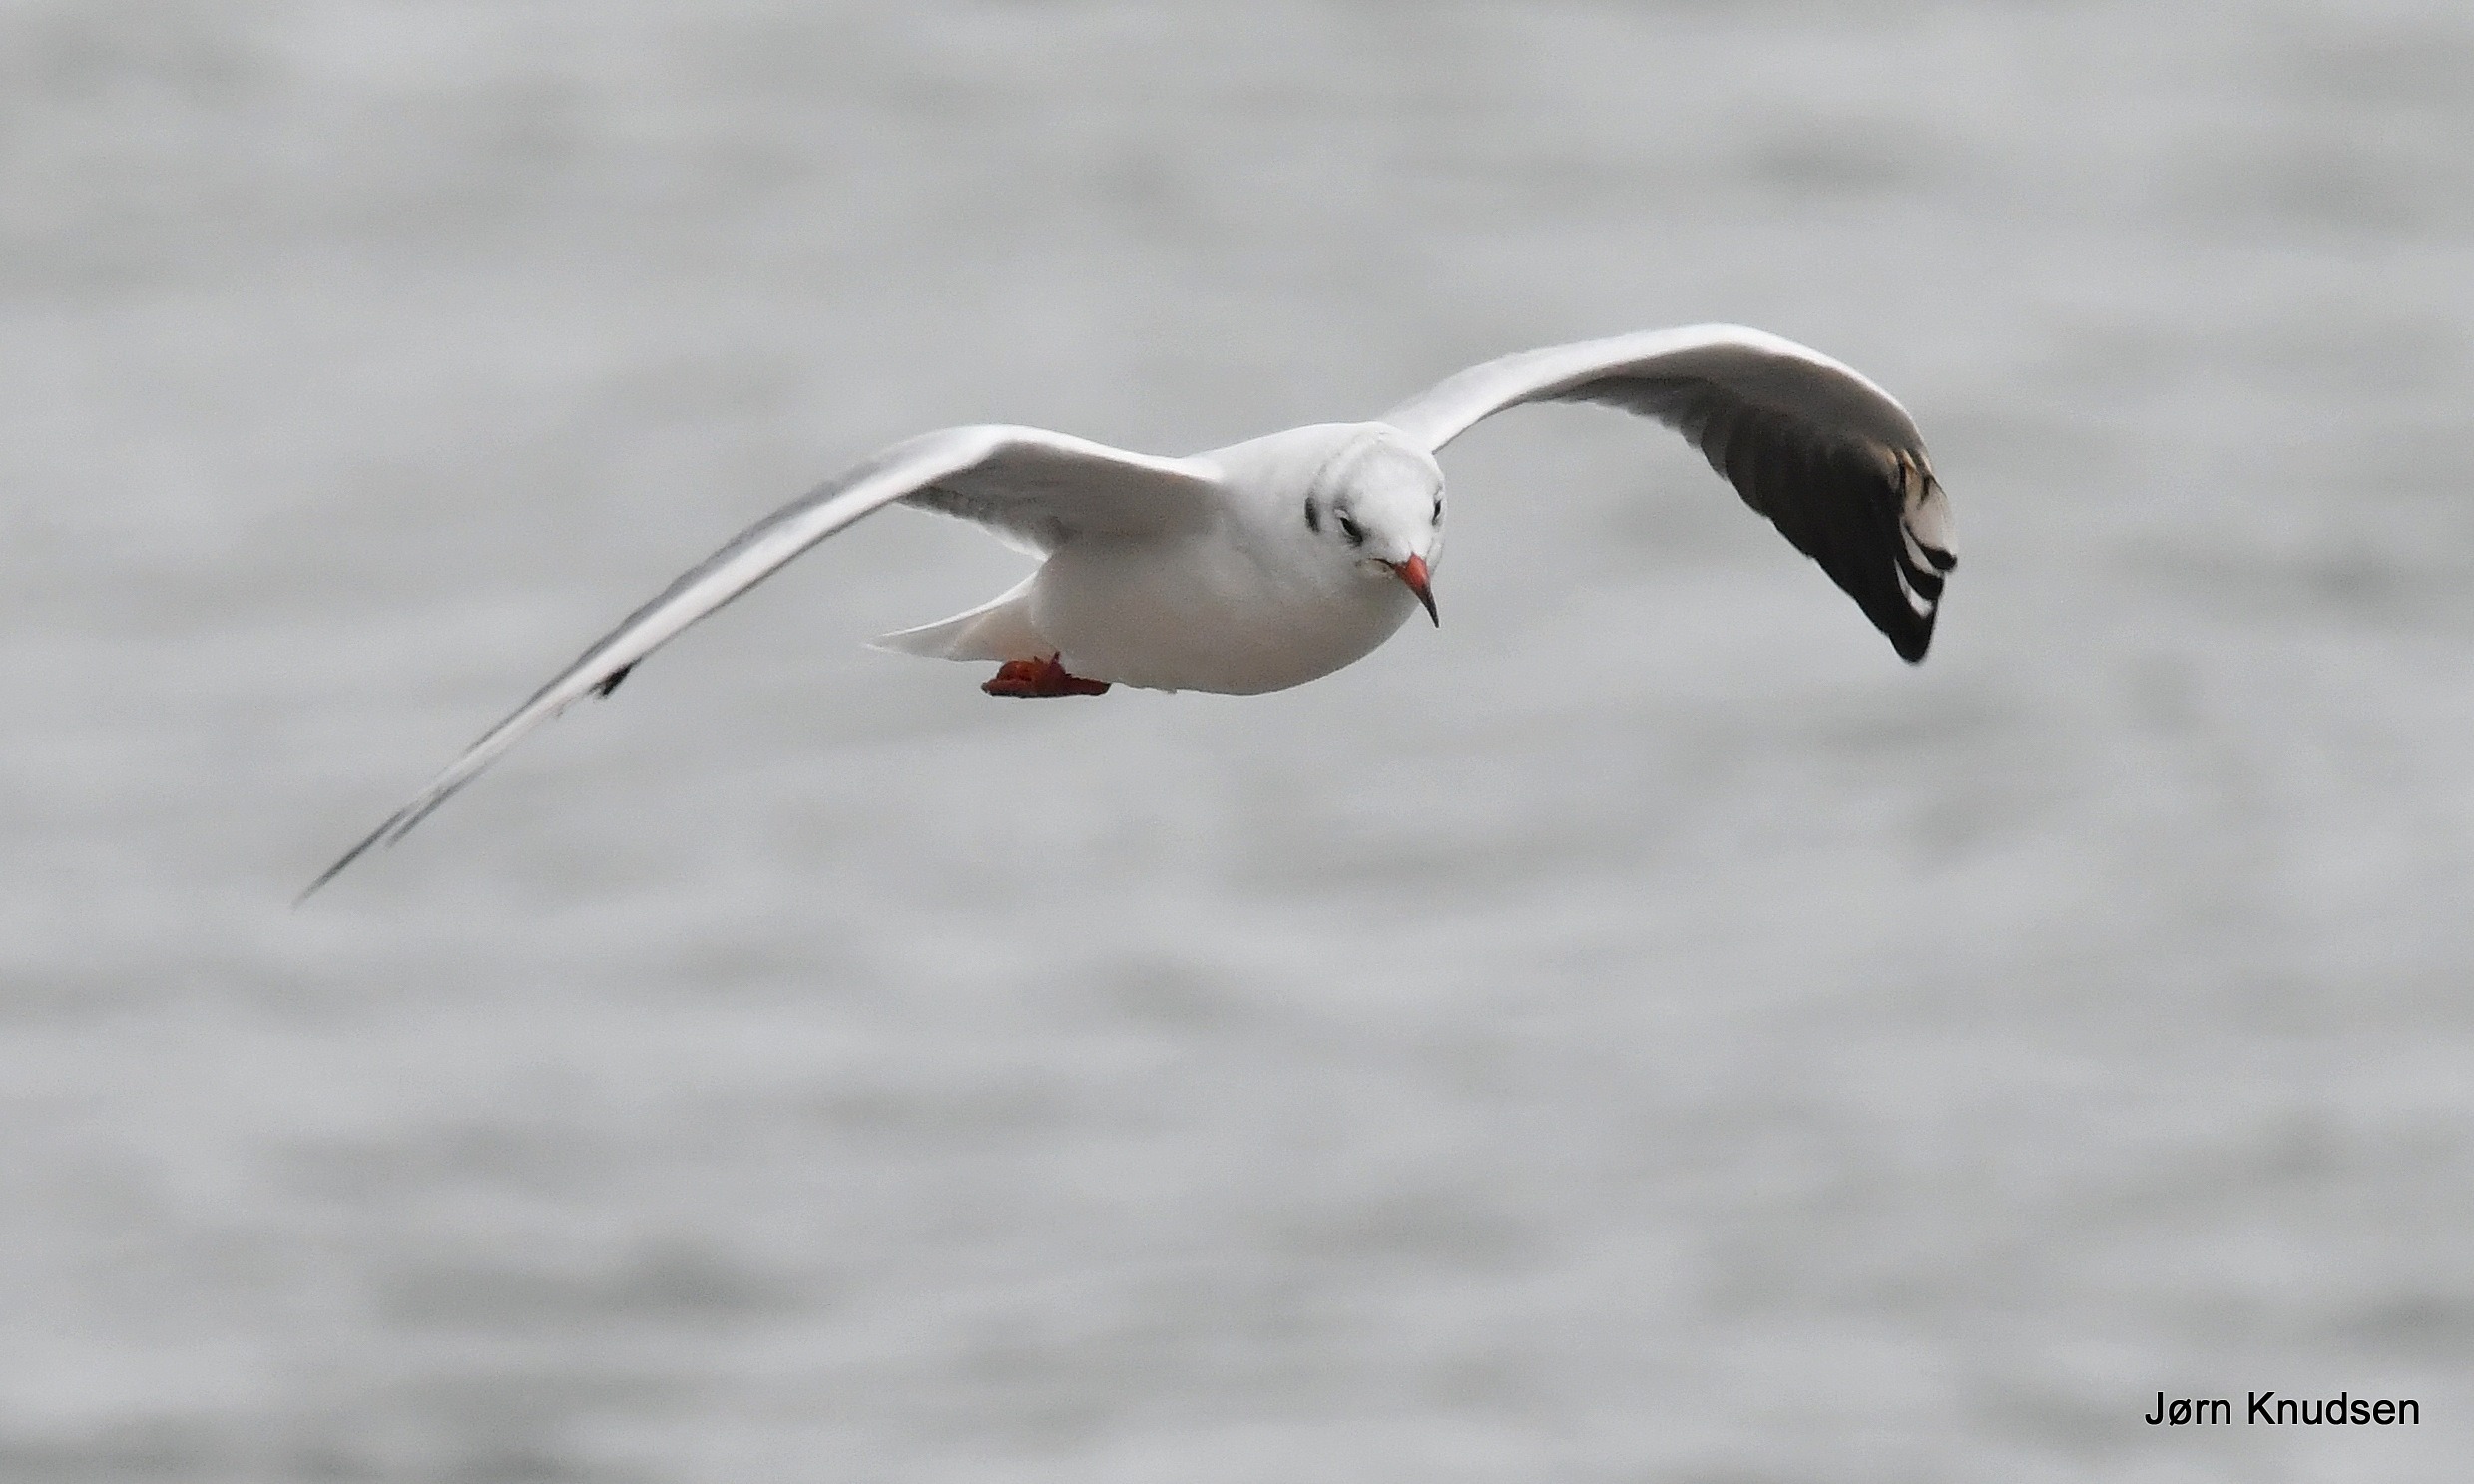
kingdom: Animalia
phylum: Chordata
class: Aves
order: Charadriiformes
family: Laridae
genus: Chroicocephalus
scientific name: Chroicocephalus ridibundus
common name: Hættemåge
